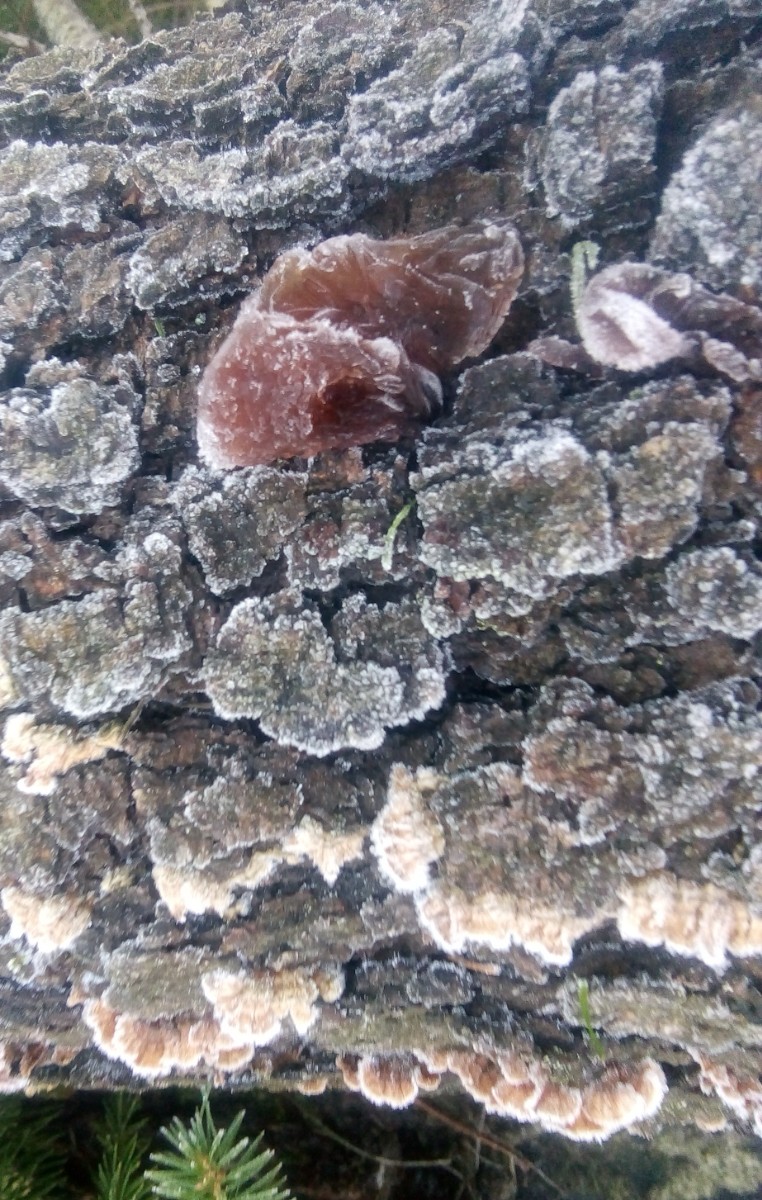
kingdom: Fungi
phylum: Basidiomycota
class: Tremellomycetes
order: Tremellales
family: Tremellaceae
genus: Phaeotremella
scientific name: Phaeotremella foliacea
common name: brun bævresvamp
